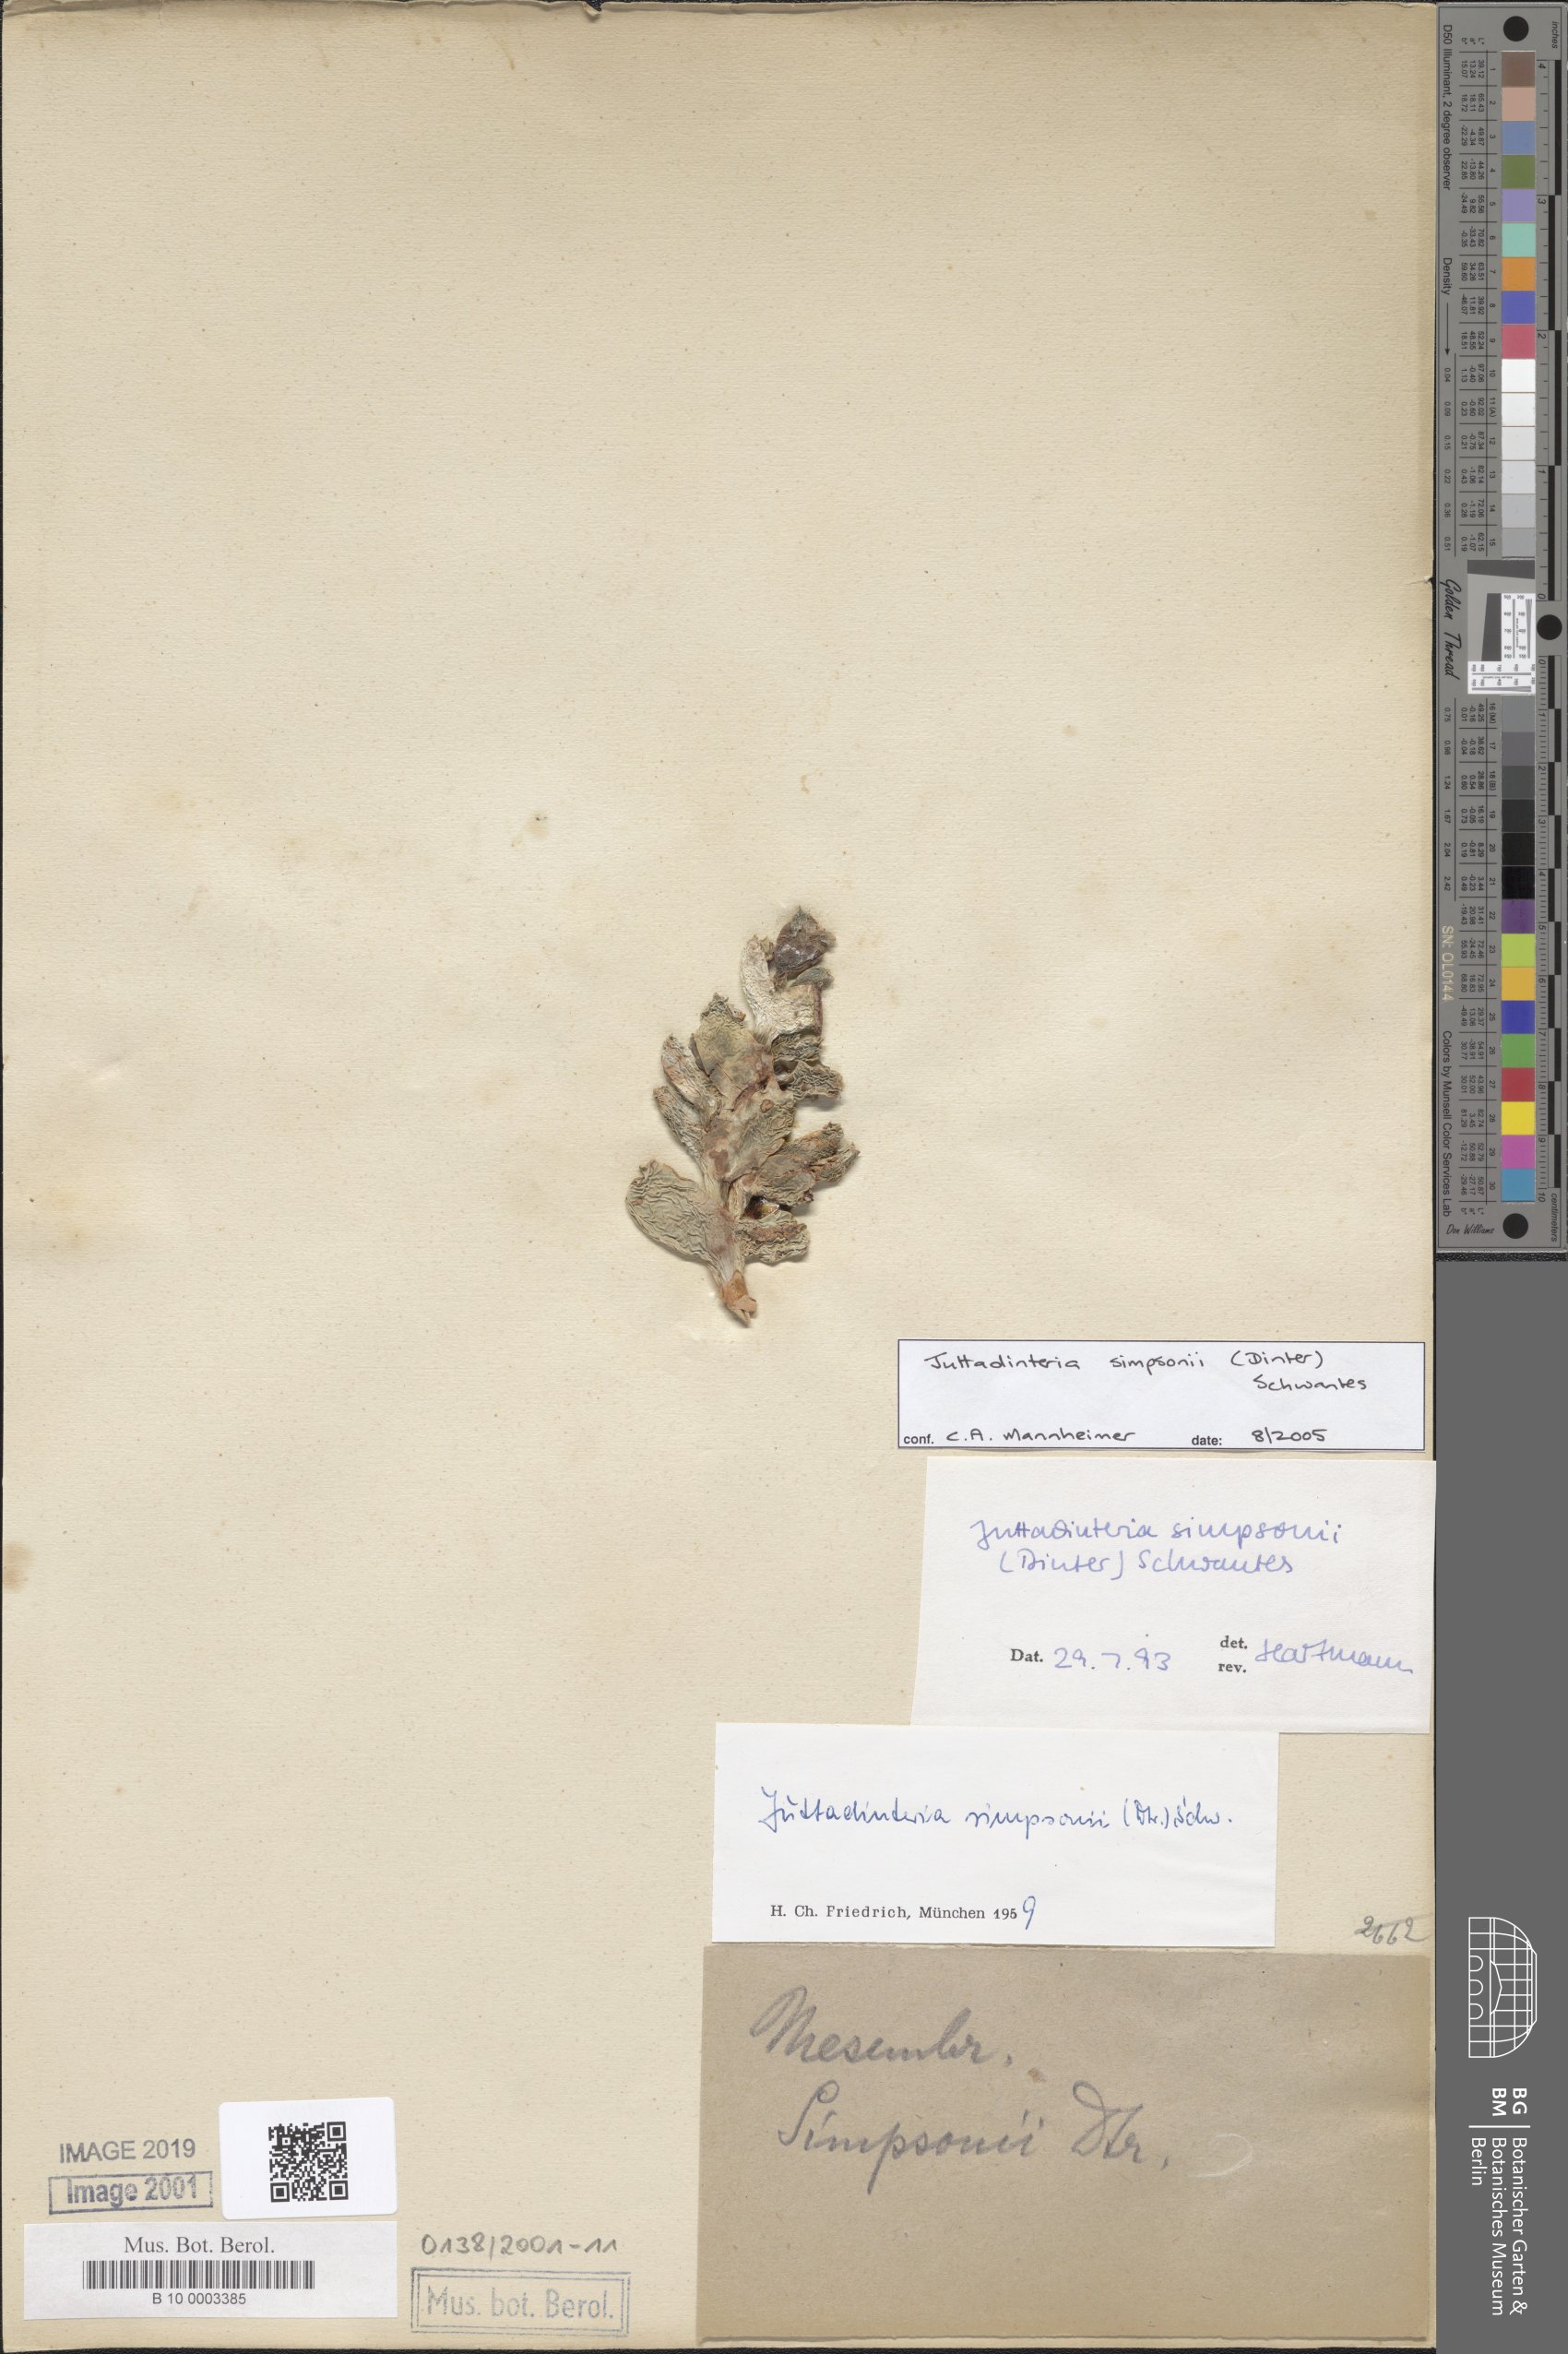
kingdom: Plantae
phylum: Tracheophyta
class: Magnoliopsida
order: Caryophyllales
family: Aizoaceae
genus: Juttadinteria
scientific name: Juttadinteria simpsonii
